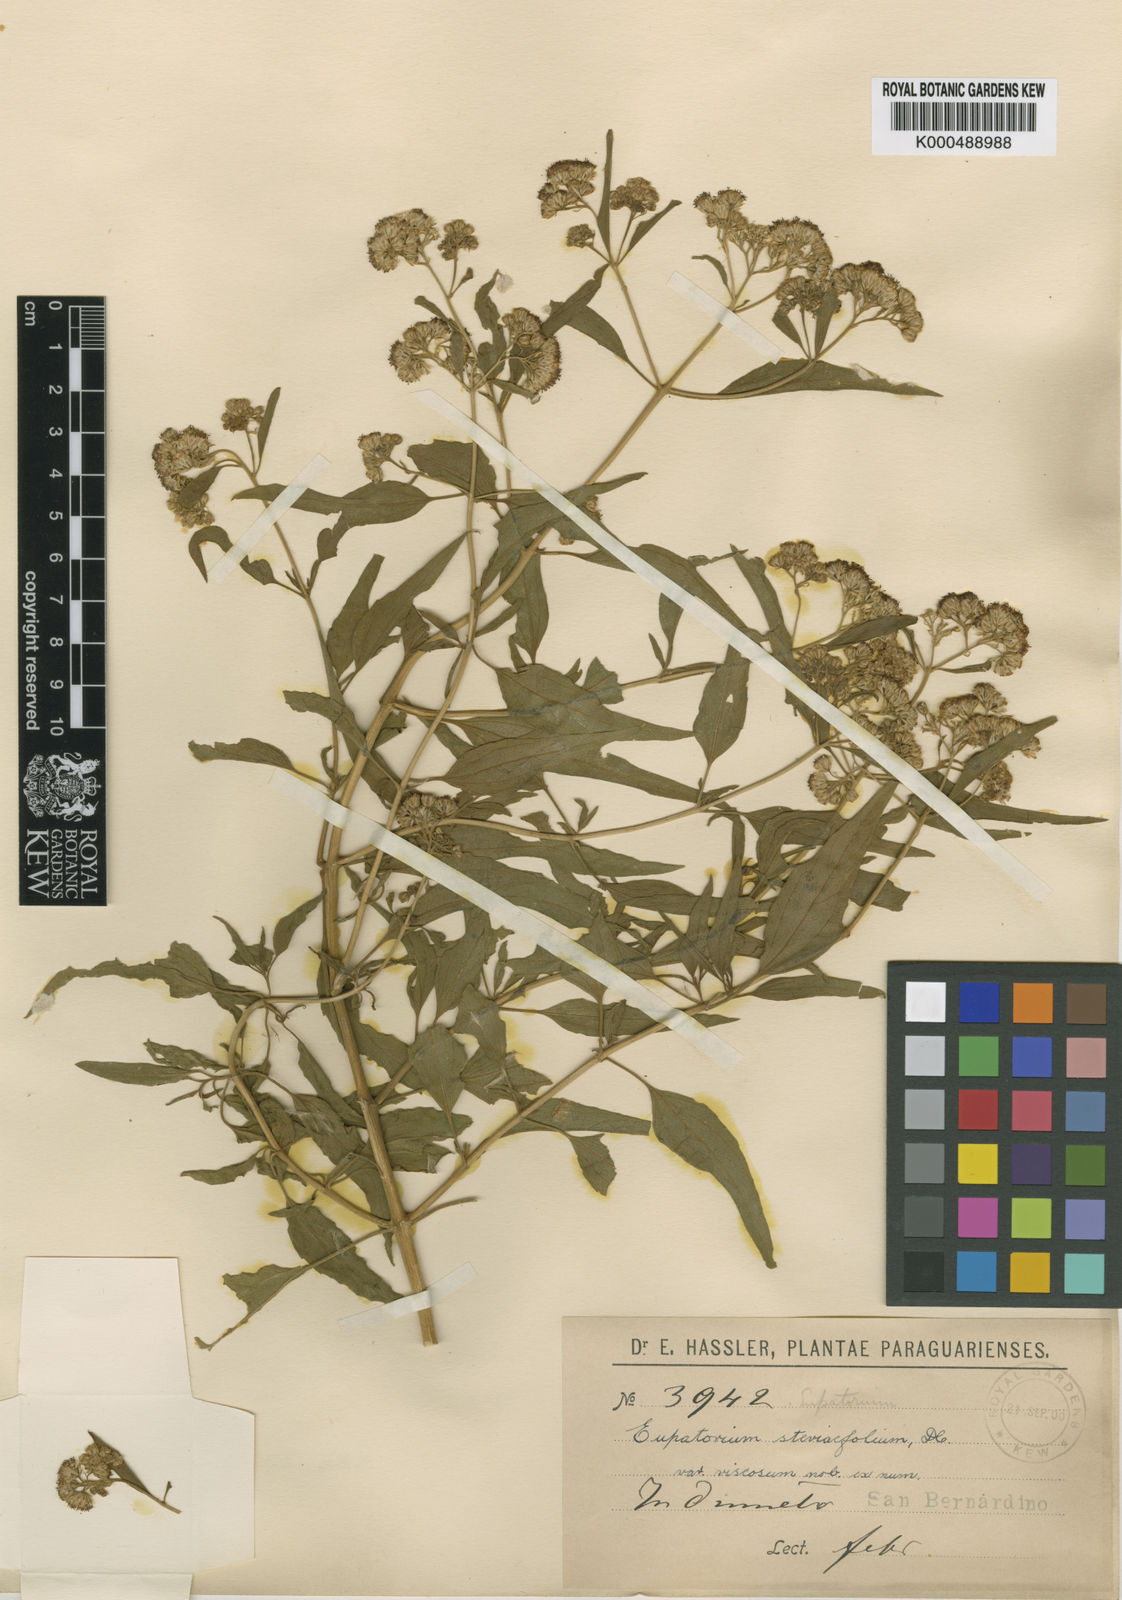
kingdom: Plantae
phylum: Tracheophyta
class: Magnoliopsida
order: Asterales
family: Asteraceae
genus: Hatschbachiella
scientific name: Hatschbachiella tweedieana
